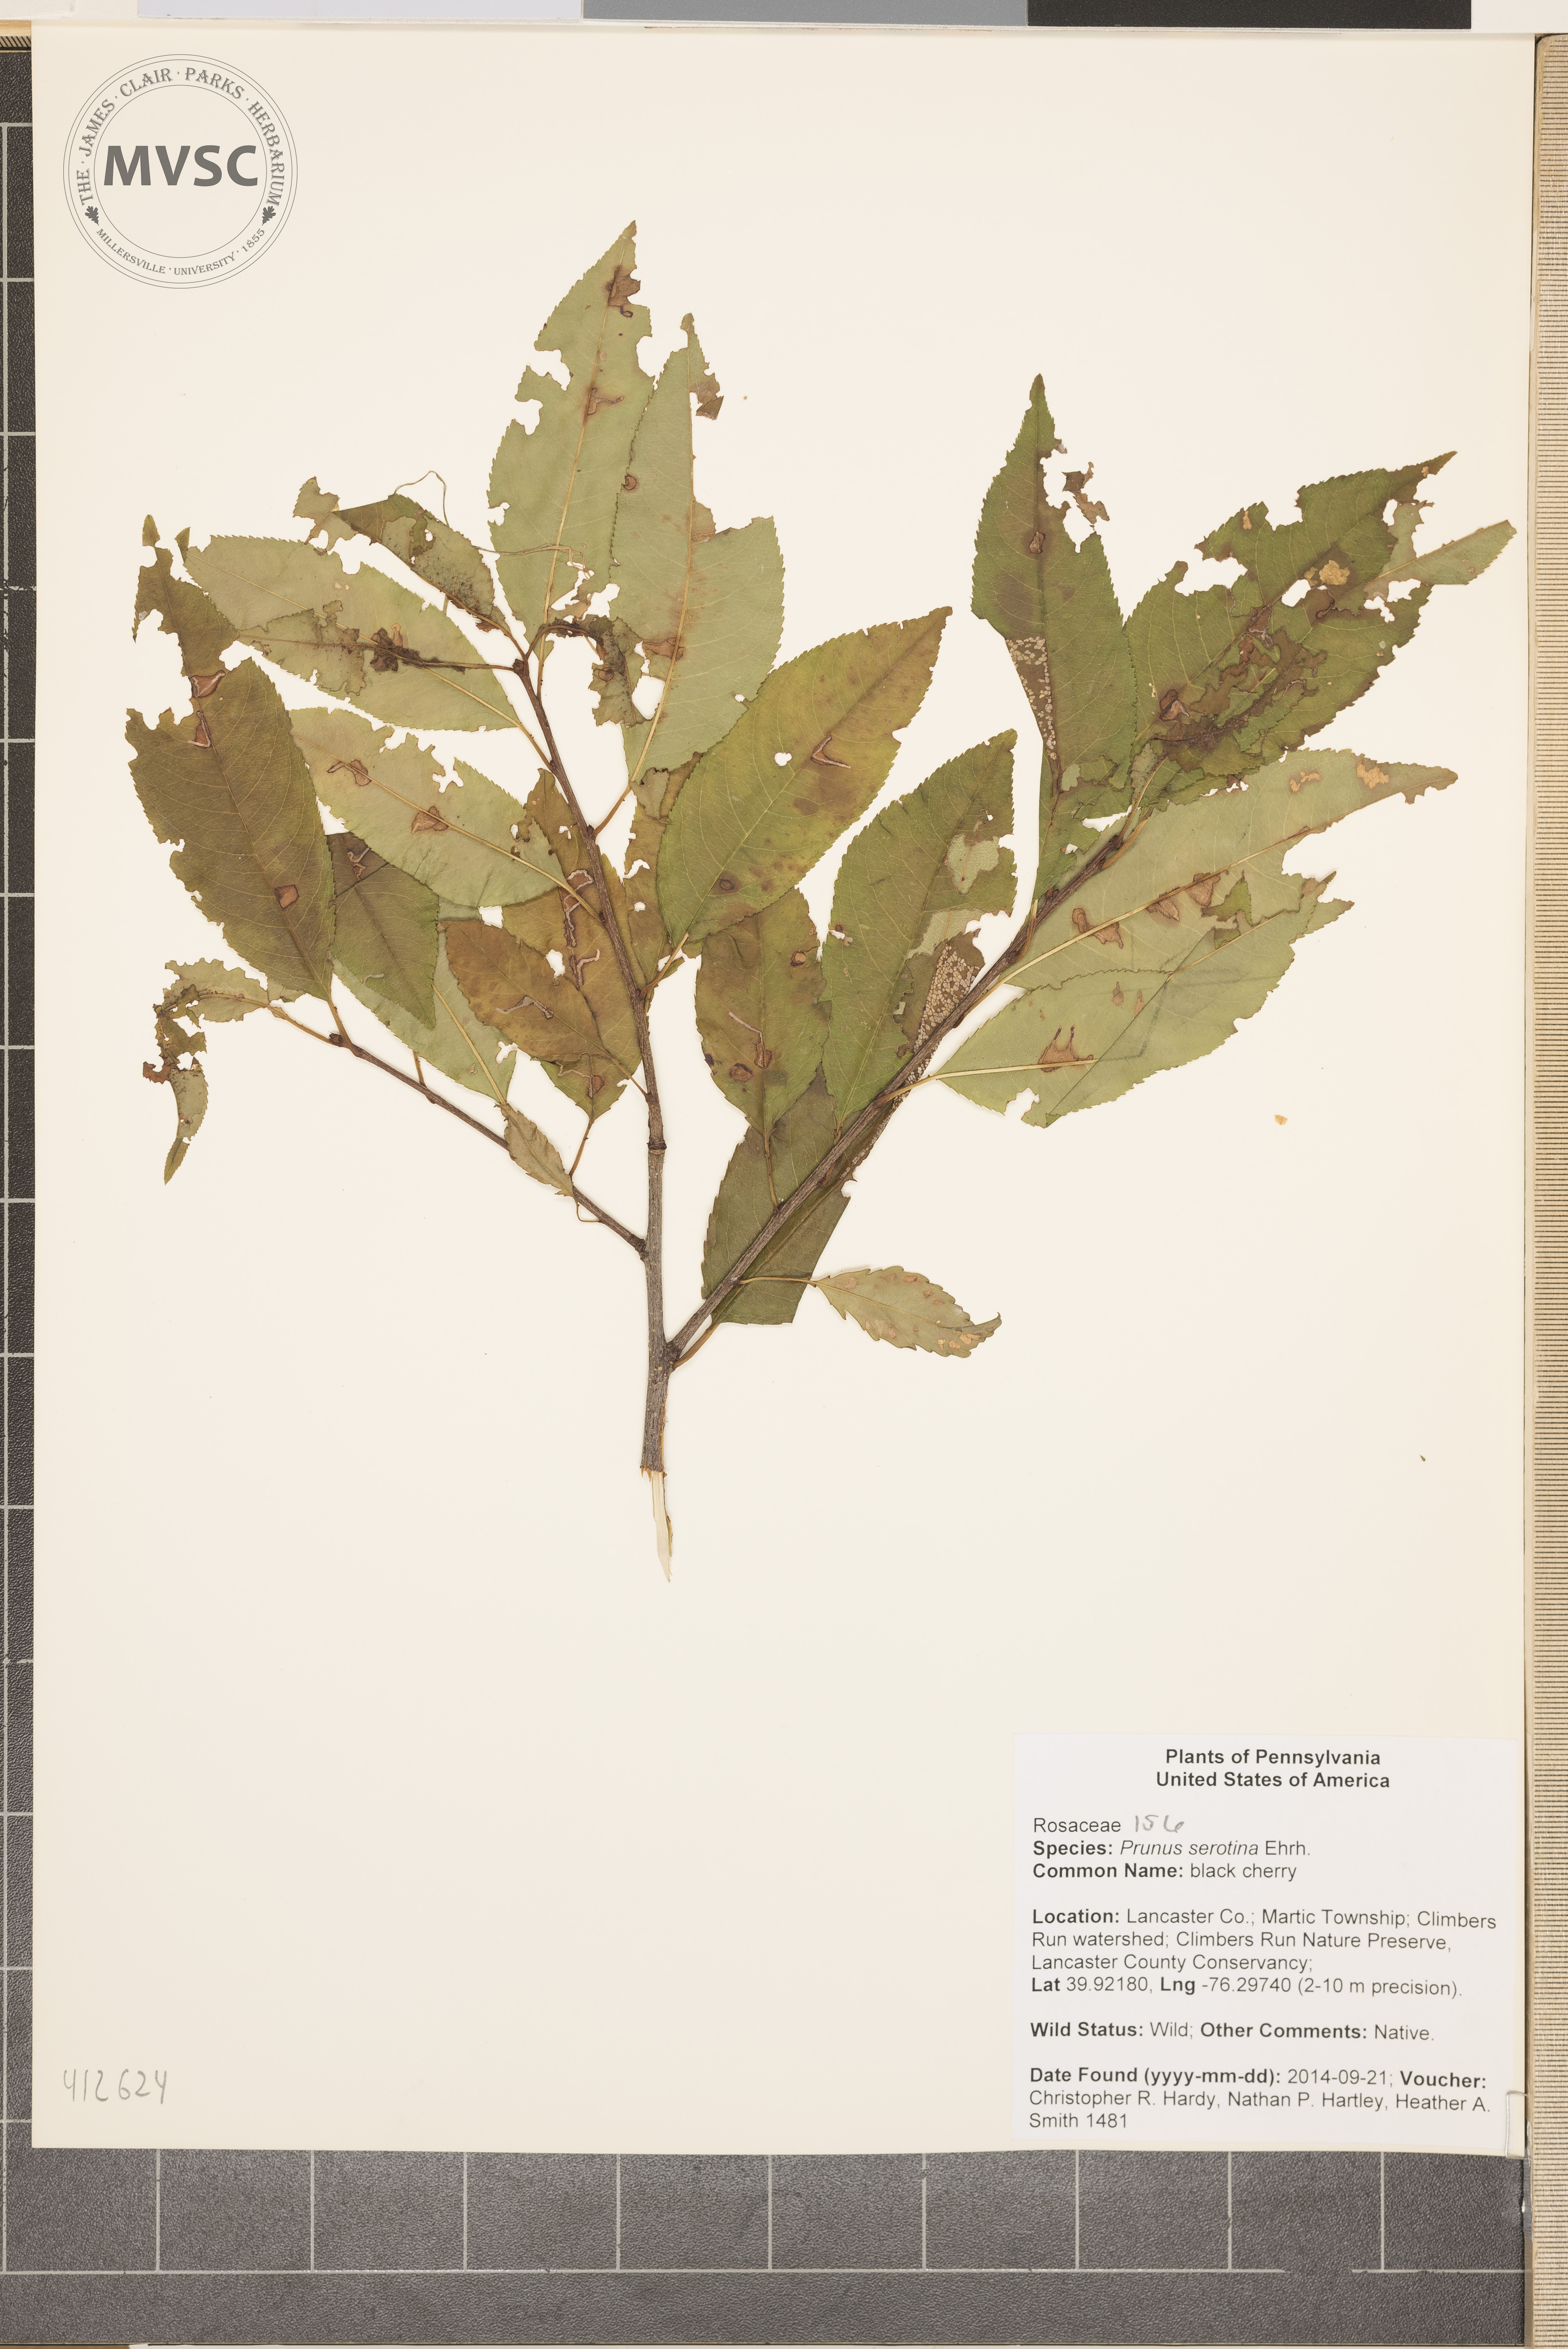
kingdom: Plantae
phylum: Tracheophyta
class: Magnoliopsida
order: Rosales
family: Rosaceae
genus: Prunus
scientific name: Prunus serotina
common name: black cherry
